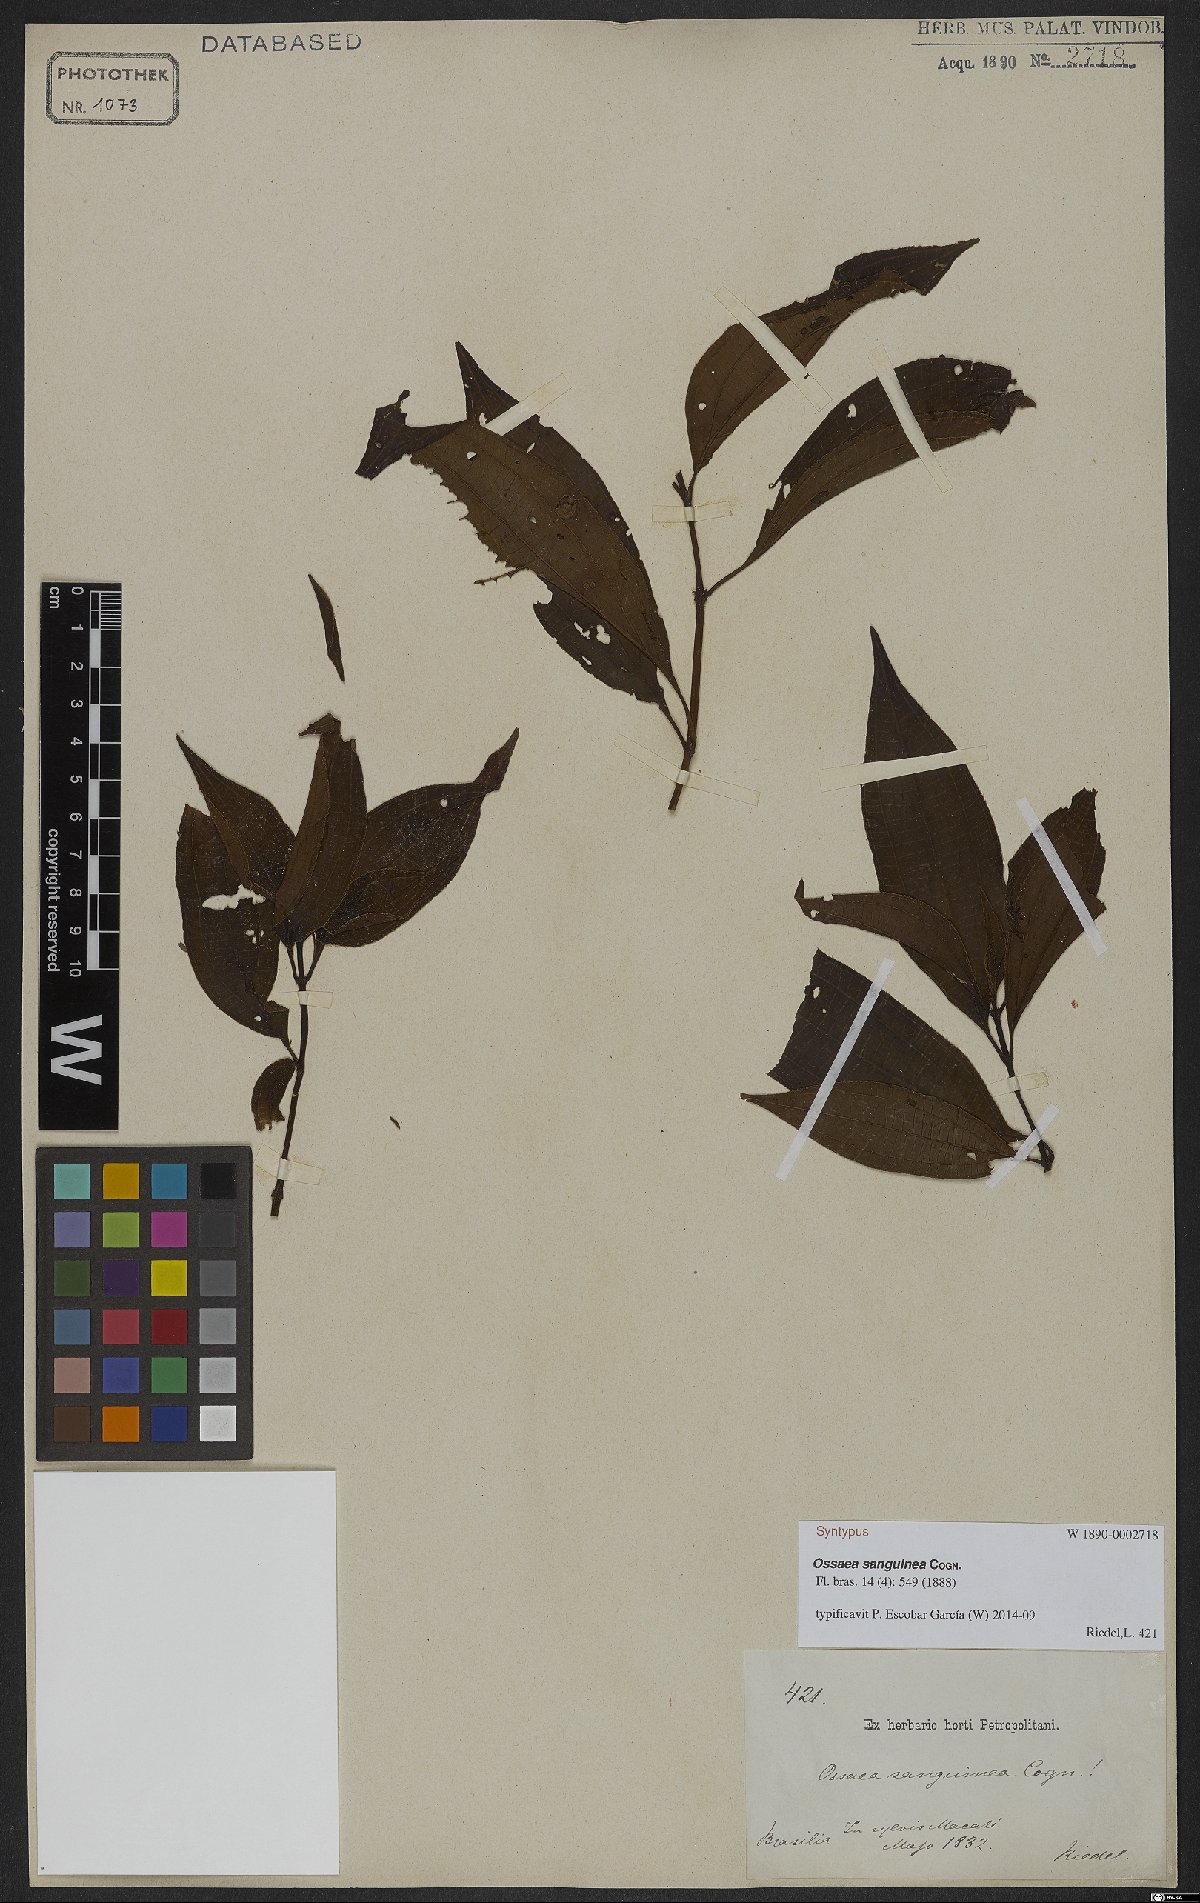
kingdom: Plantae
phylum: Tracheophyta
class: Magnoliopsida
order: Myrtales
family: Melastomataceae
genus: Miconia
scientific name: Miconia secunsanguinea
